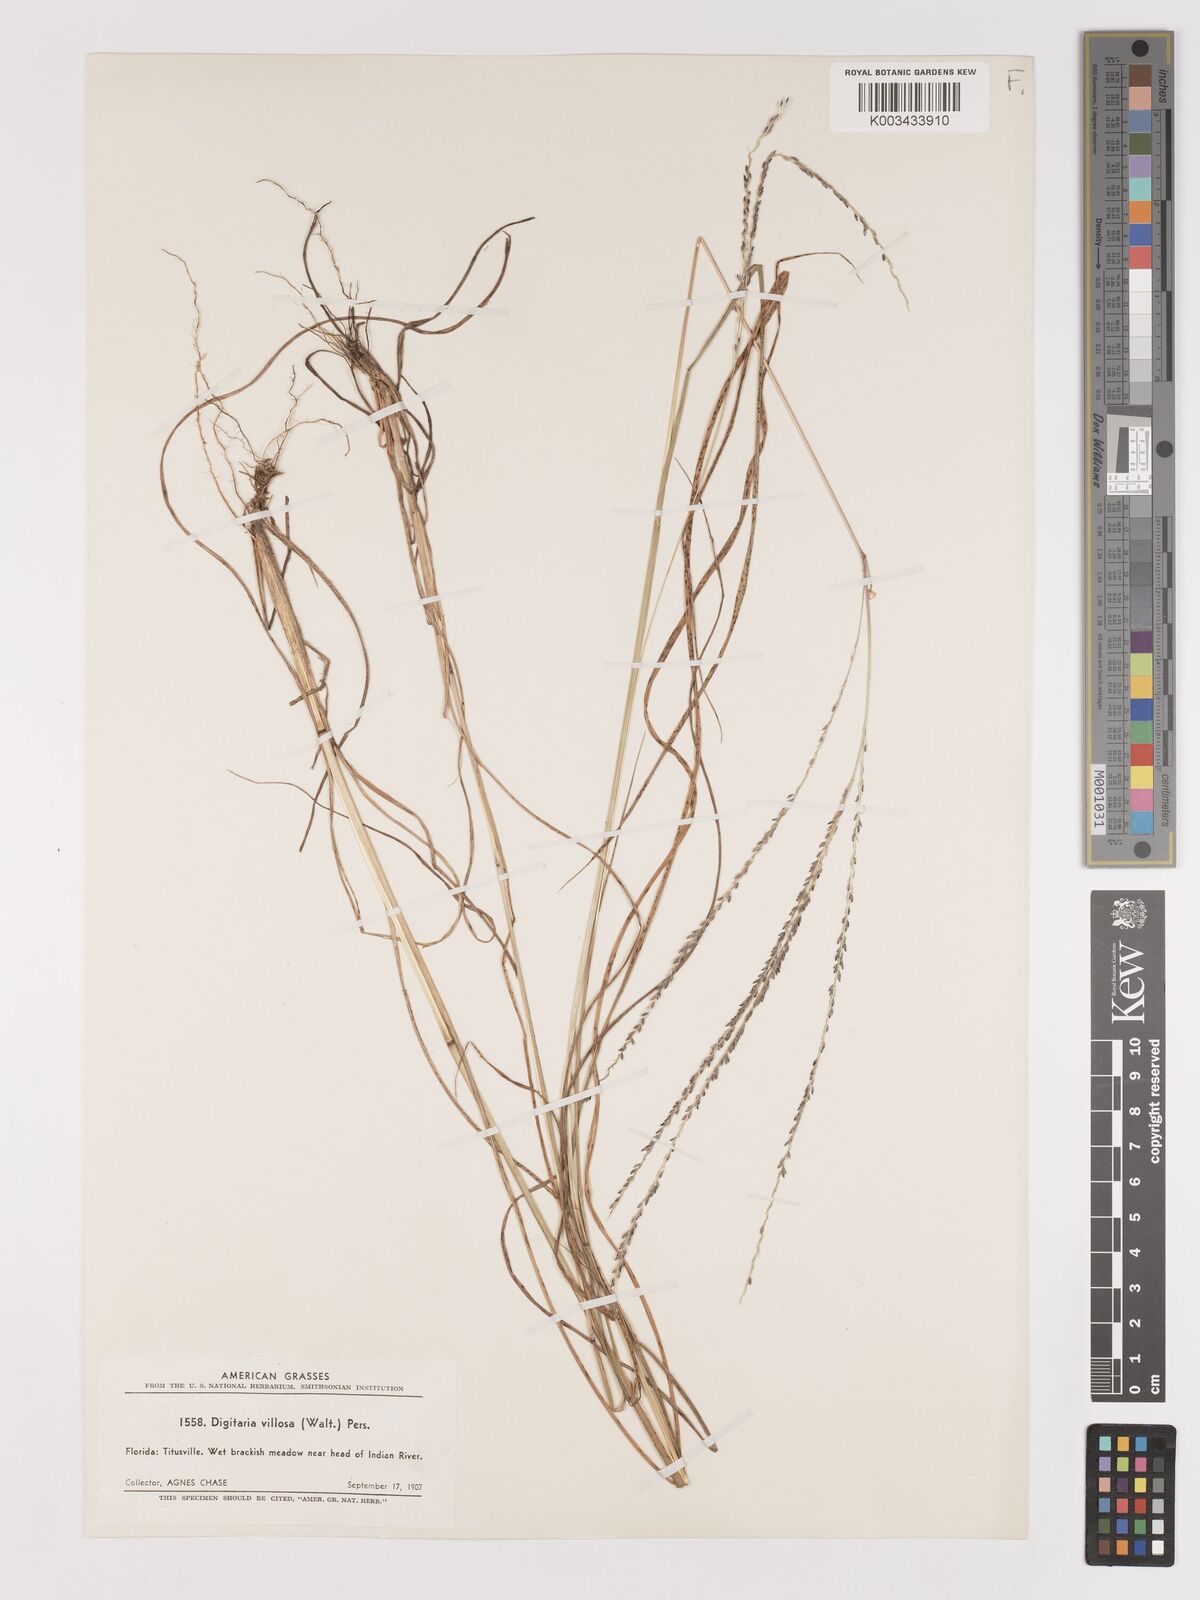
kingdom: Plantae
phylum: Tracheophyta
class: Liliopsida
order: Poales
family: Poaceae
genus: Digitaria
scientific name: Digitaria villosa
